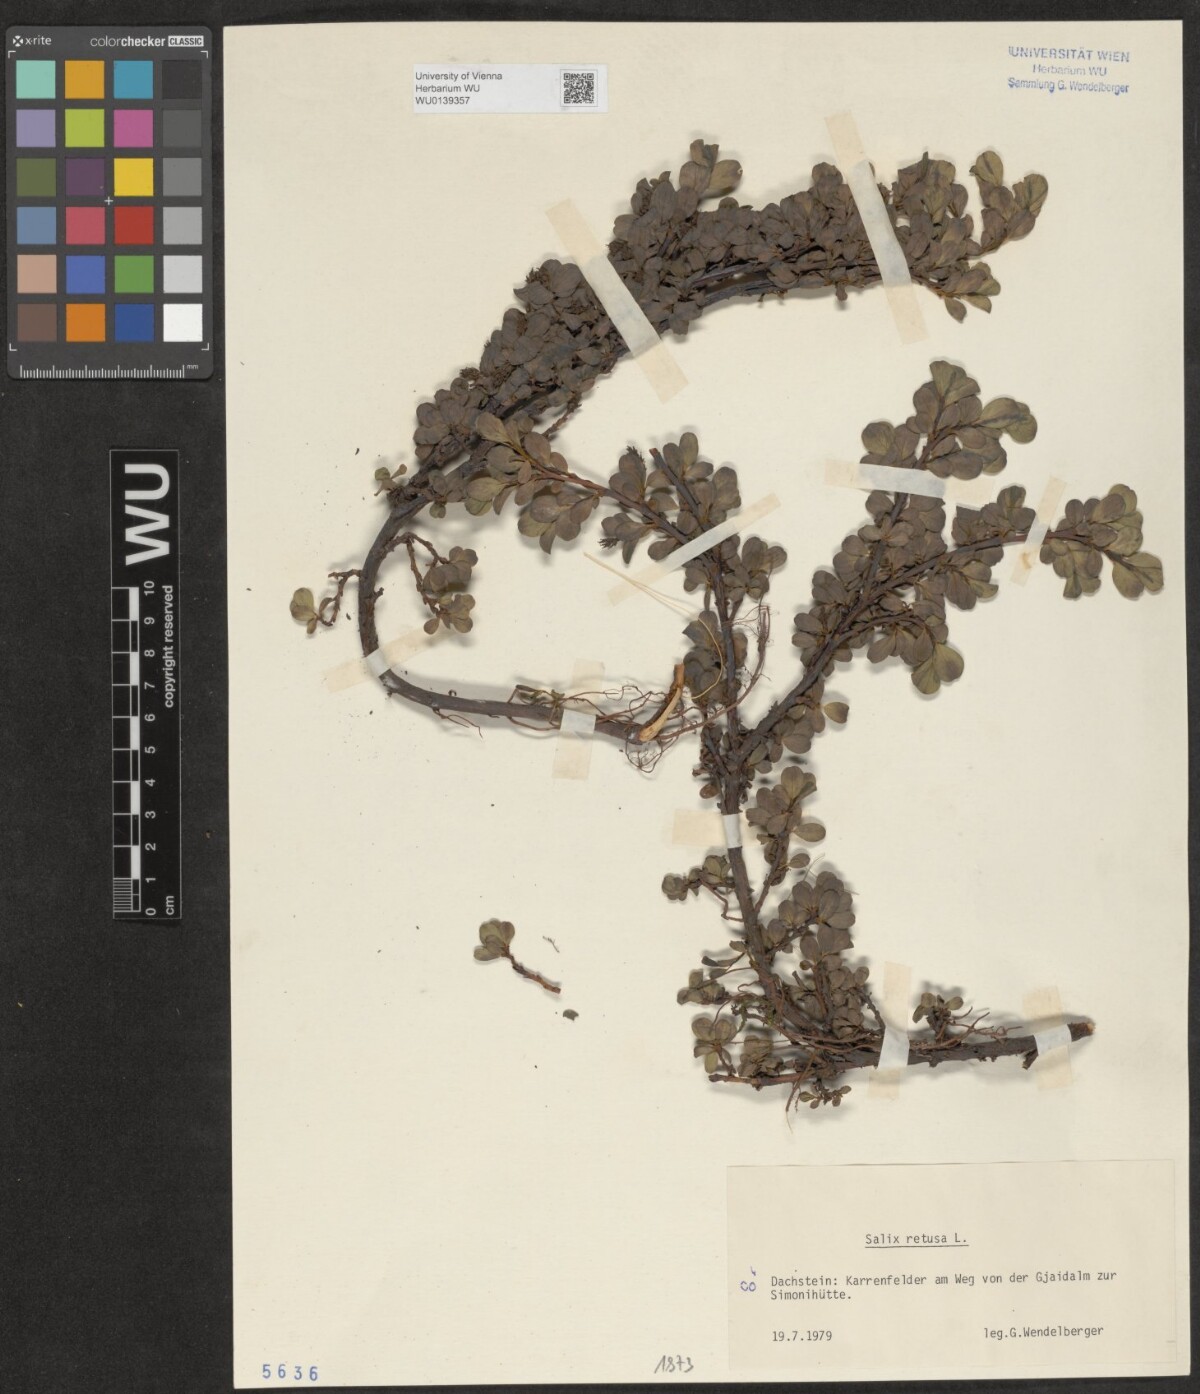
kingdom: Plantae
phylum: Tracheophyta
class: Magnoliopsida
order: Malpighiales
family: Salicaceae
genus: Salix
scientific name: Salix retusa
